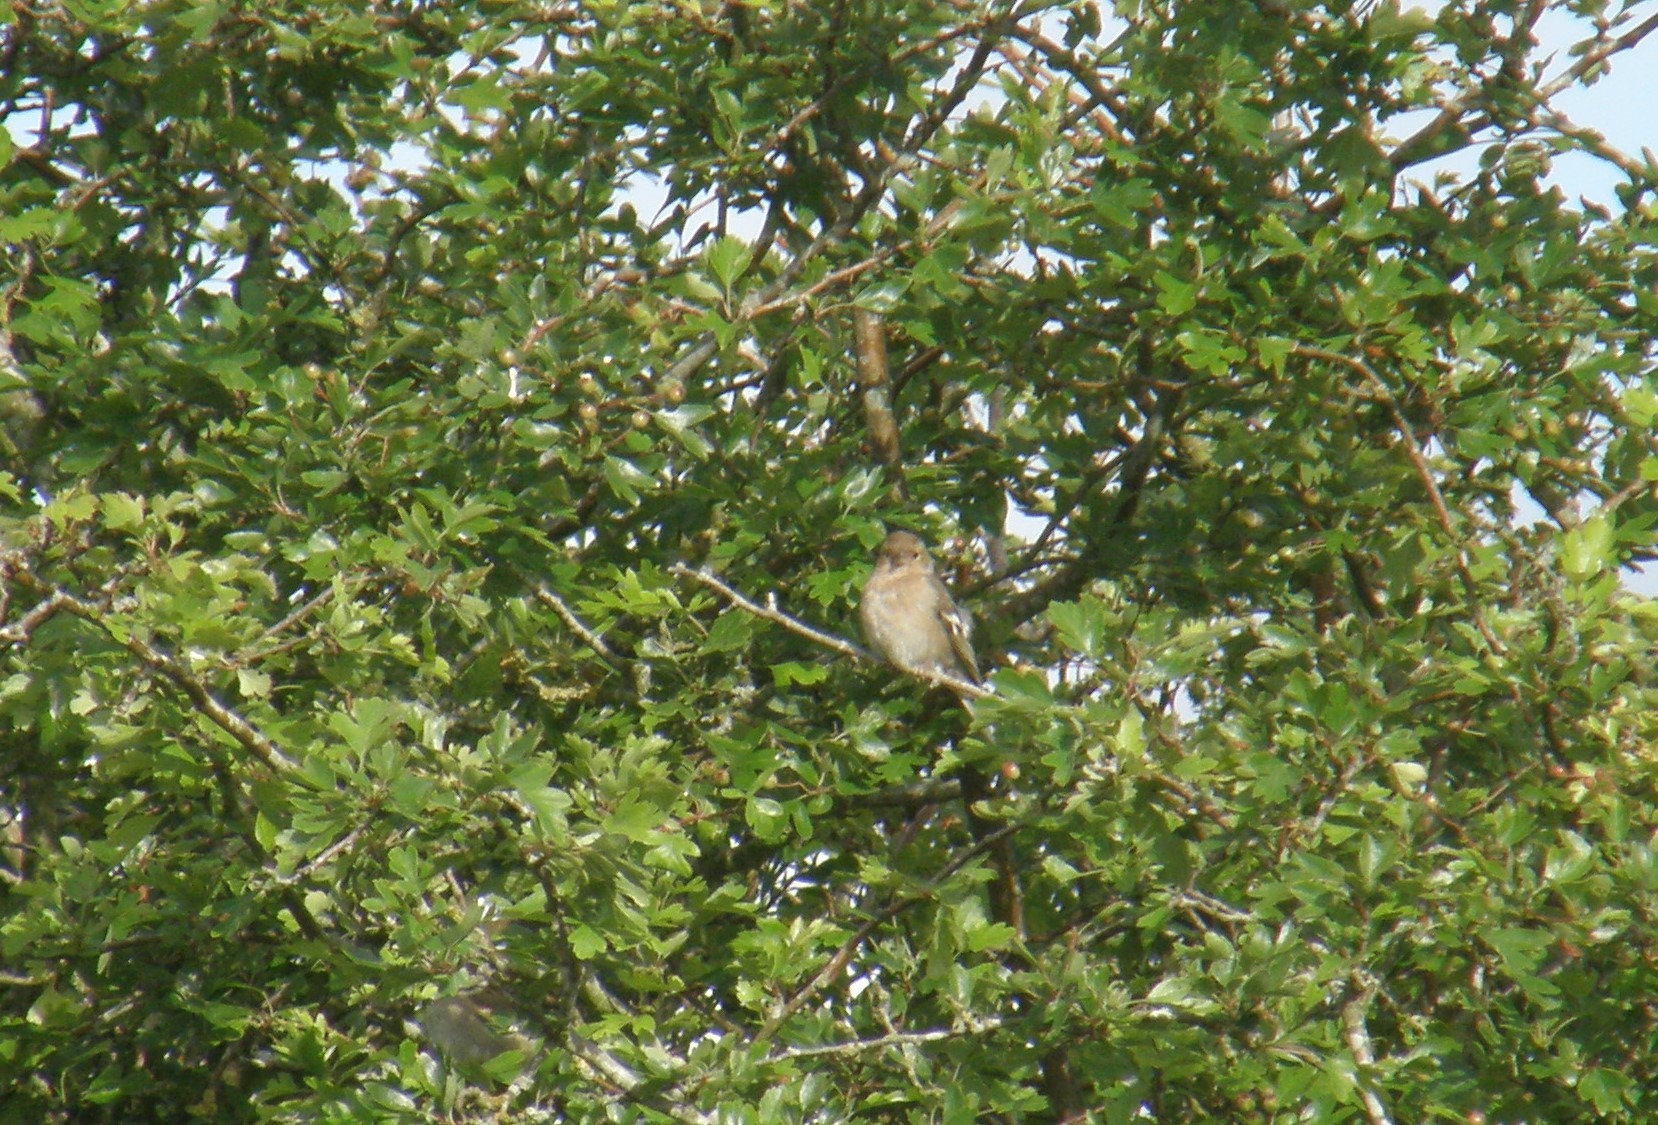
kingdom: Animalia
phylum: Chordata
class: Aves
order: Passeriformes
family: Fringillidae
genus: Fringilla
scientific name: Fringilla coelebs
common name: Bogfinke
